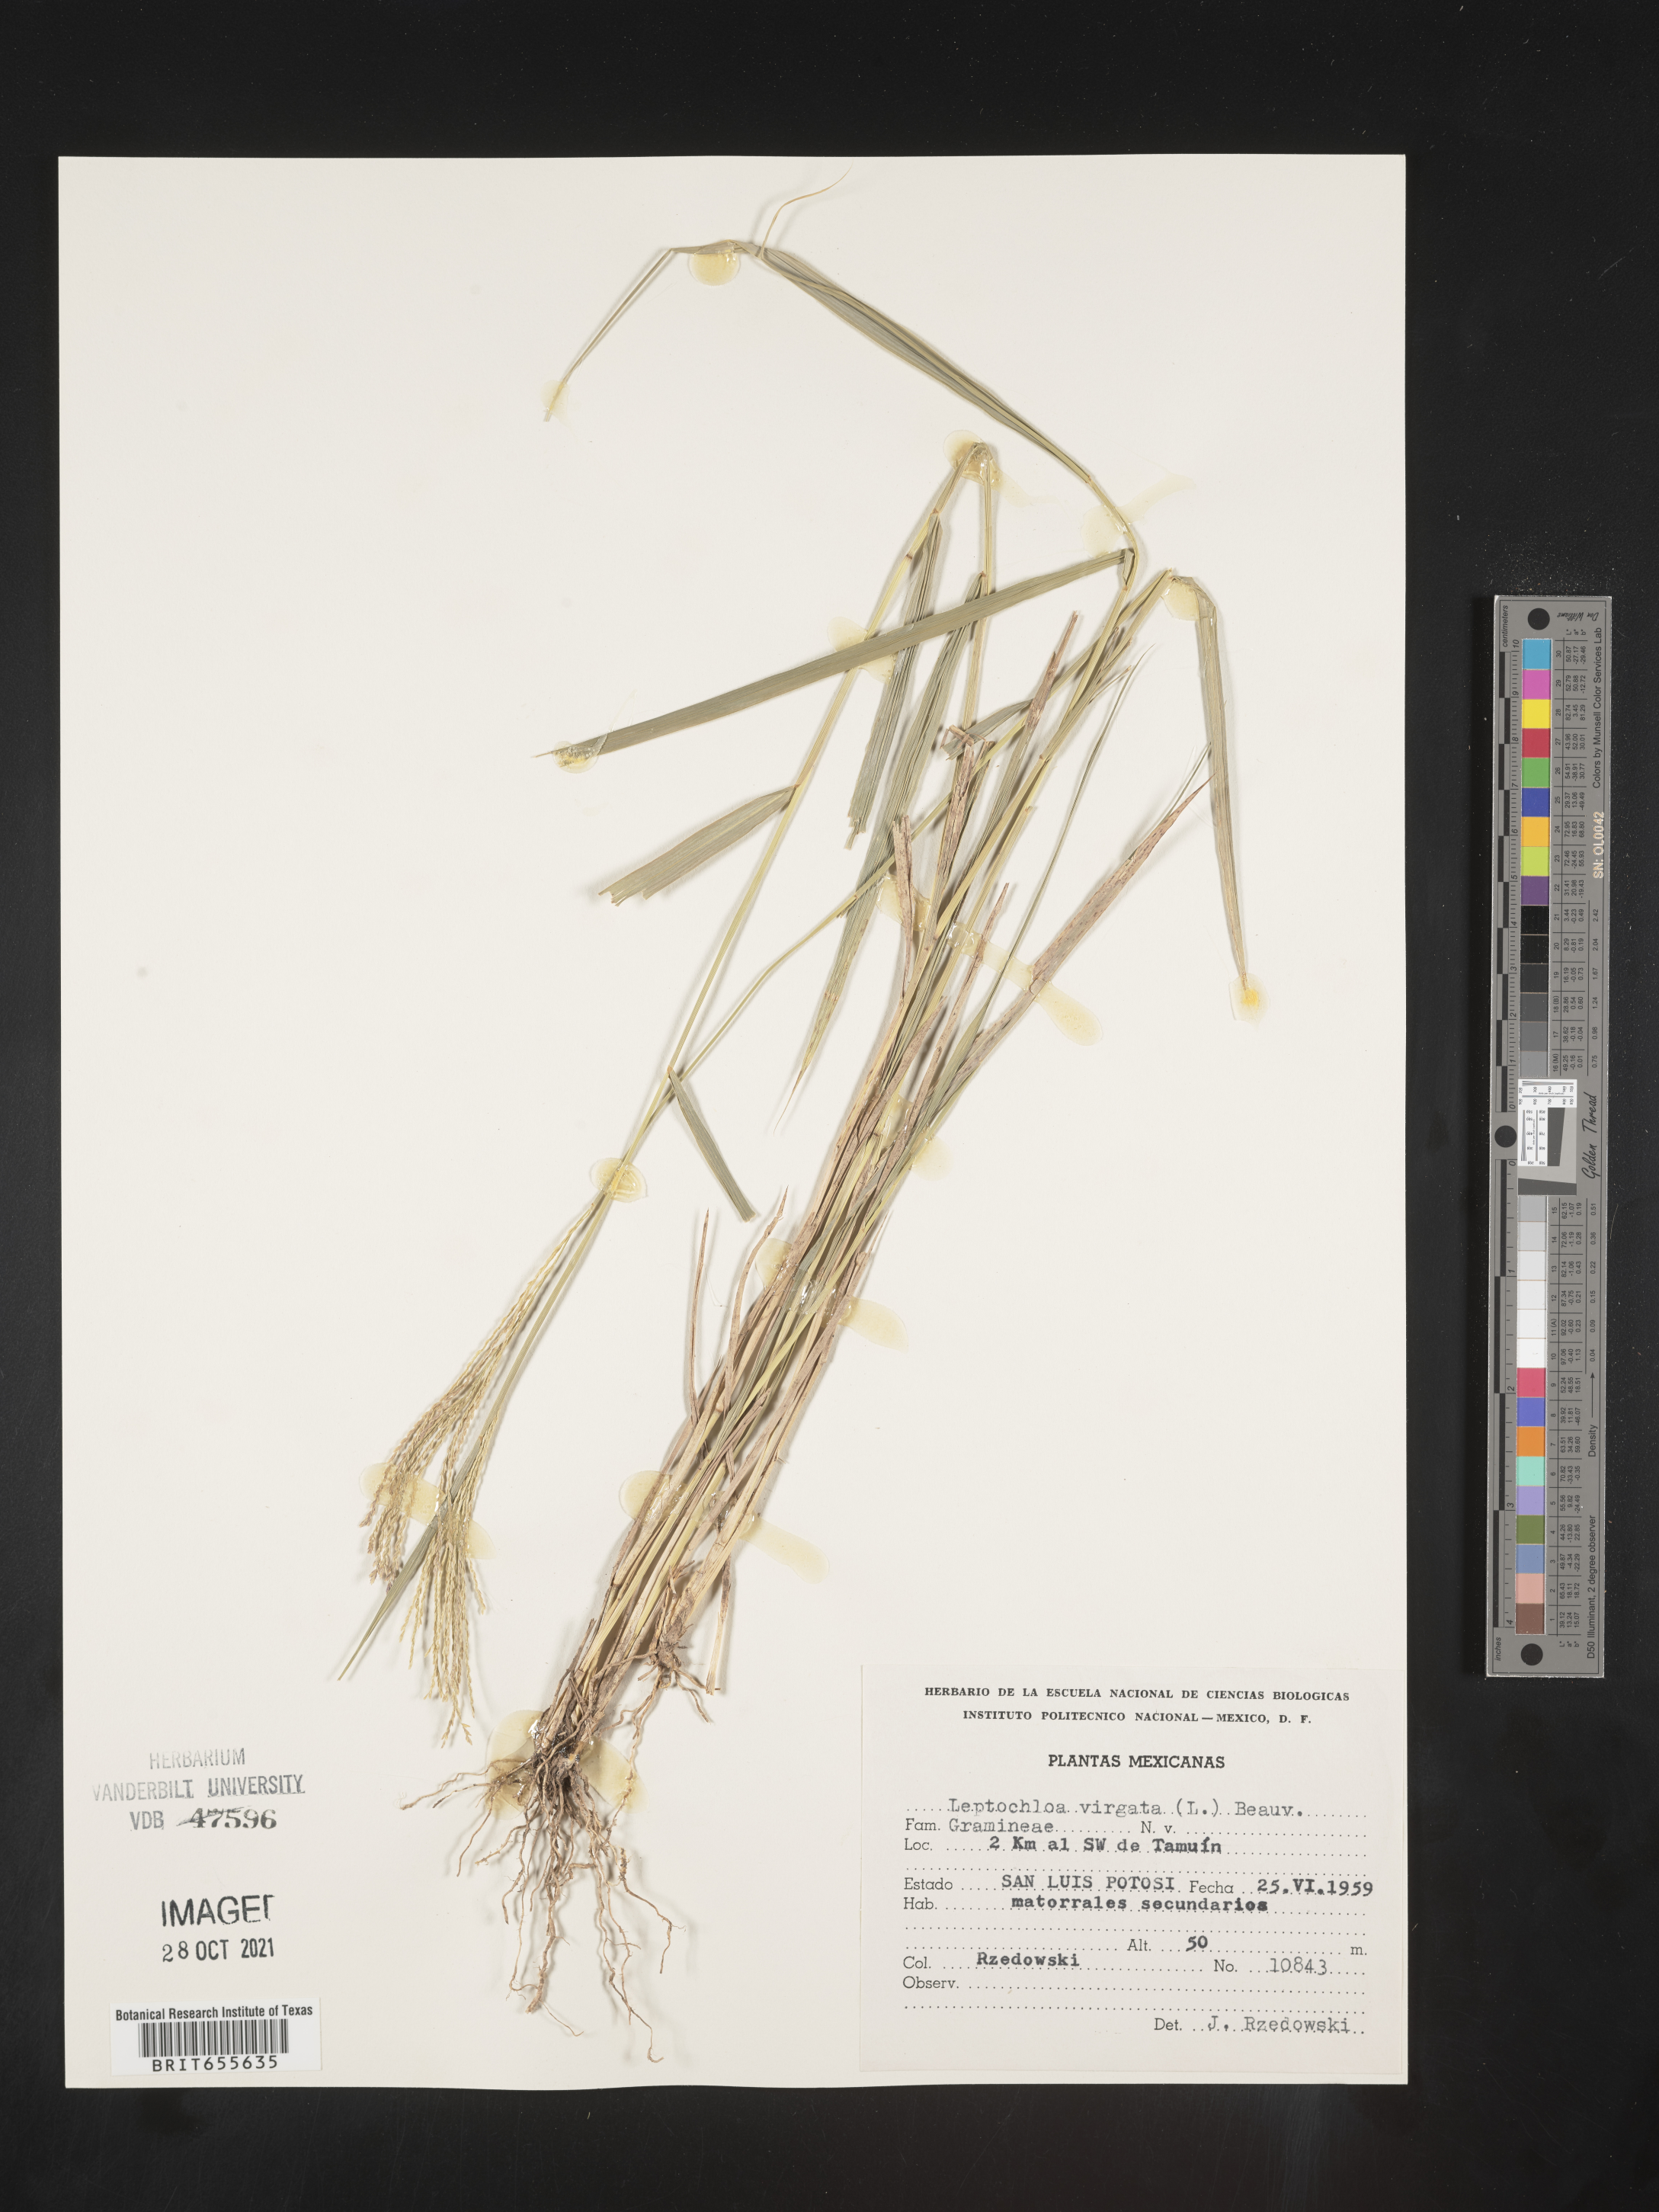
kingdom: Plantae
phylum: Tracheophyta
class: Liliopsida
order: Poales
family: Poaceae
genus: Leptochloa
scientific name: Leptochloa
